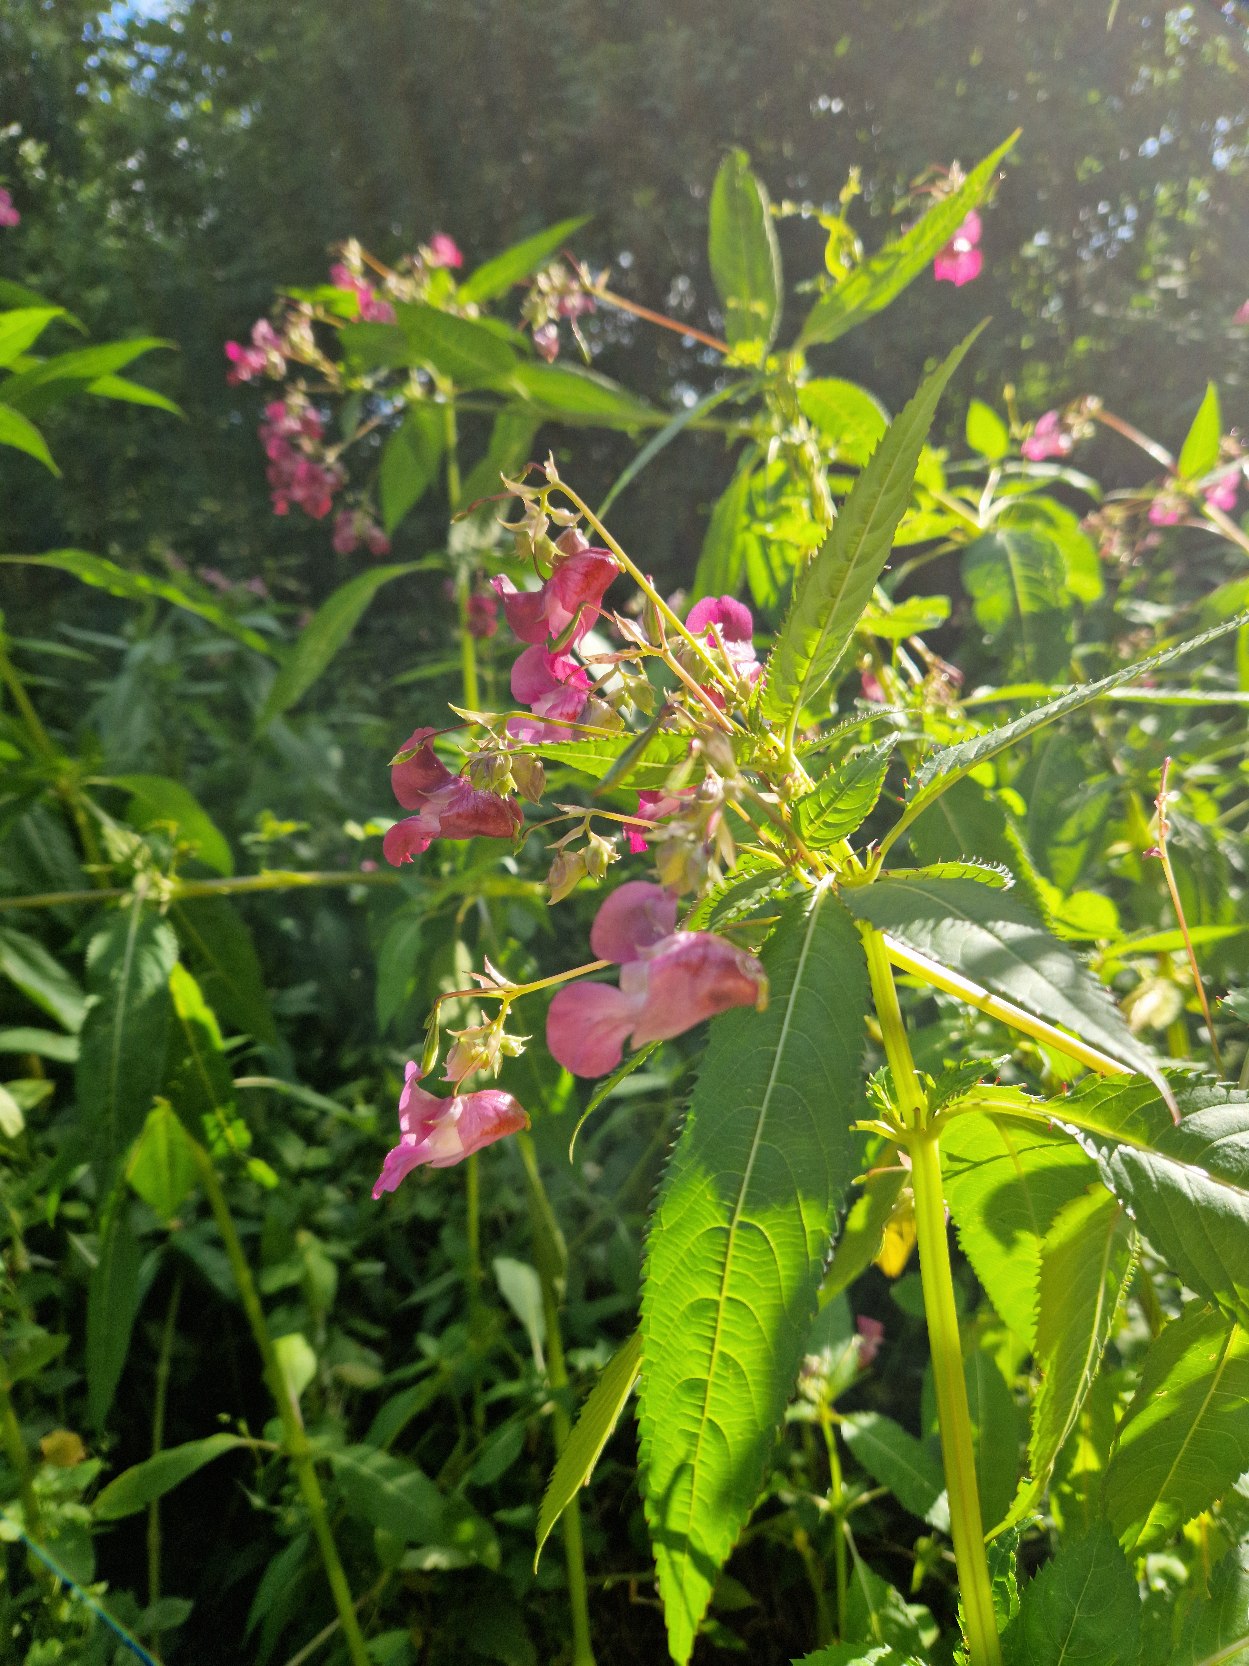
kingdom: Plantae
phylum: Tracheophyta
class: Magnoliopsida
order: Ericales
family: Balsaminaceae
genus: Impatiens
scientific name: Impatiens glandulifera
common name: Kæmpe-balsamin
